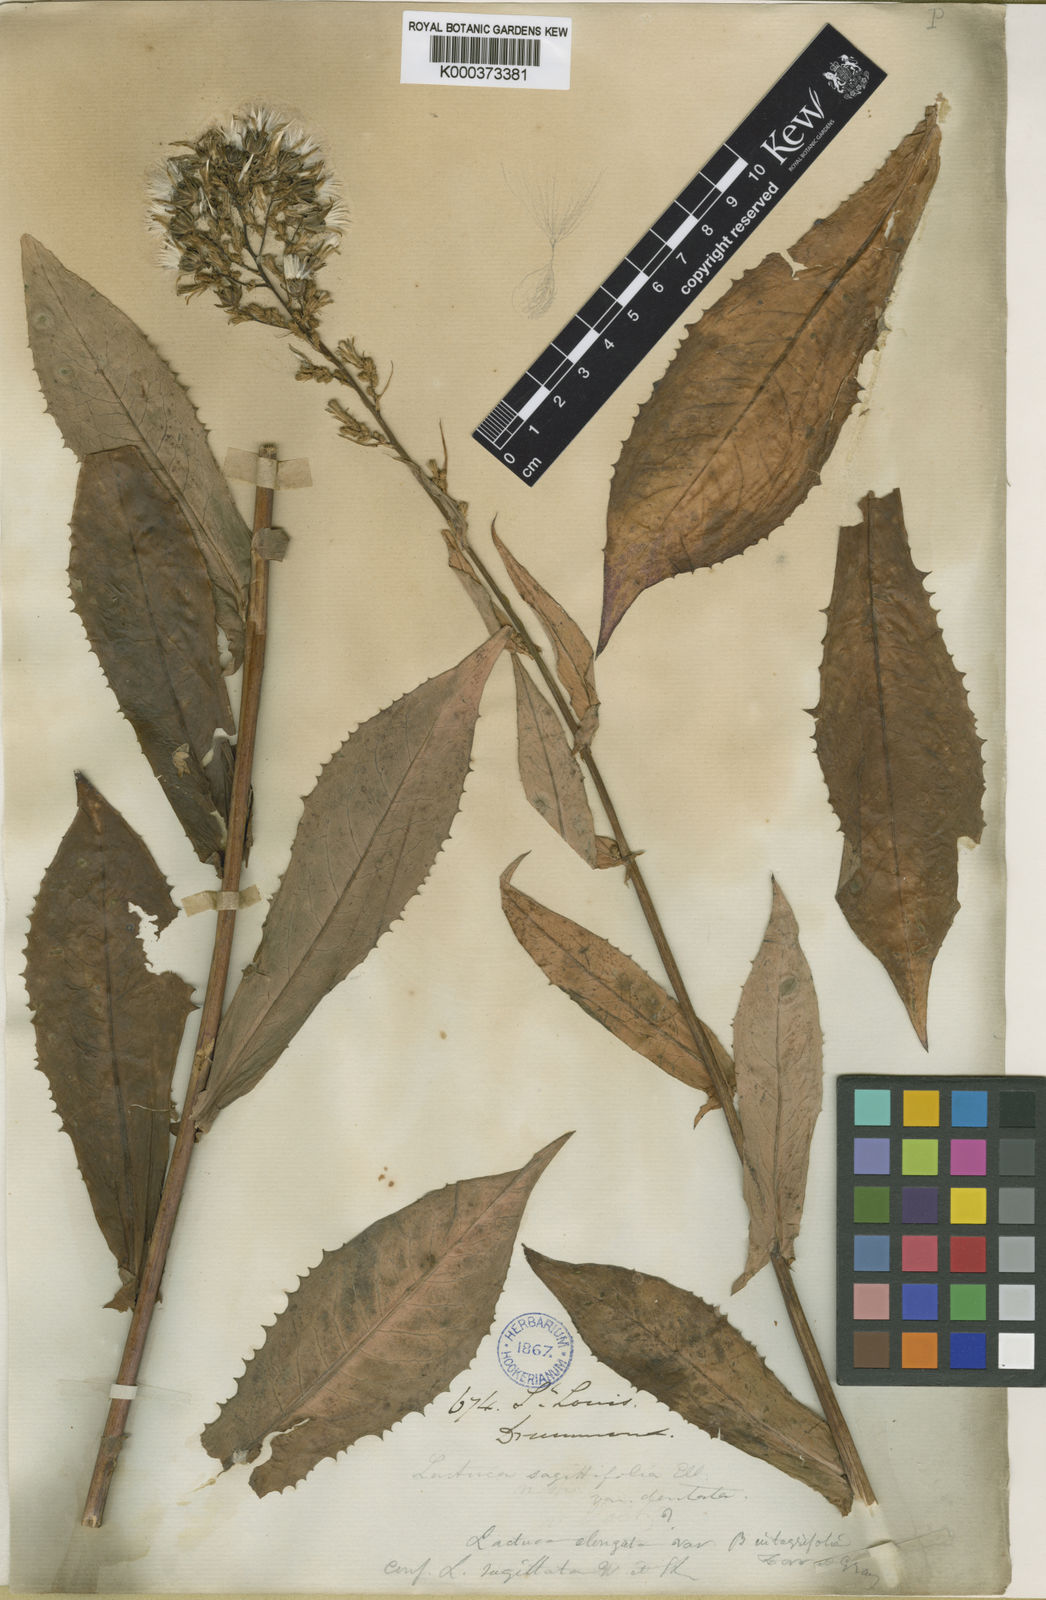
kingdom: Plantae
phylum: Tracheophyta
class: Magnoliopsida
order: Asterales
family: Asteraceae
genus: Lactuca
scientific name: Lactuca hirsuta
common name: Hairy lettuce
